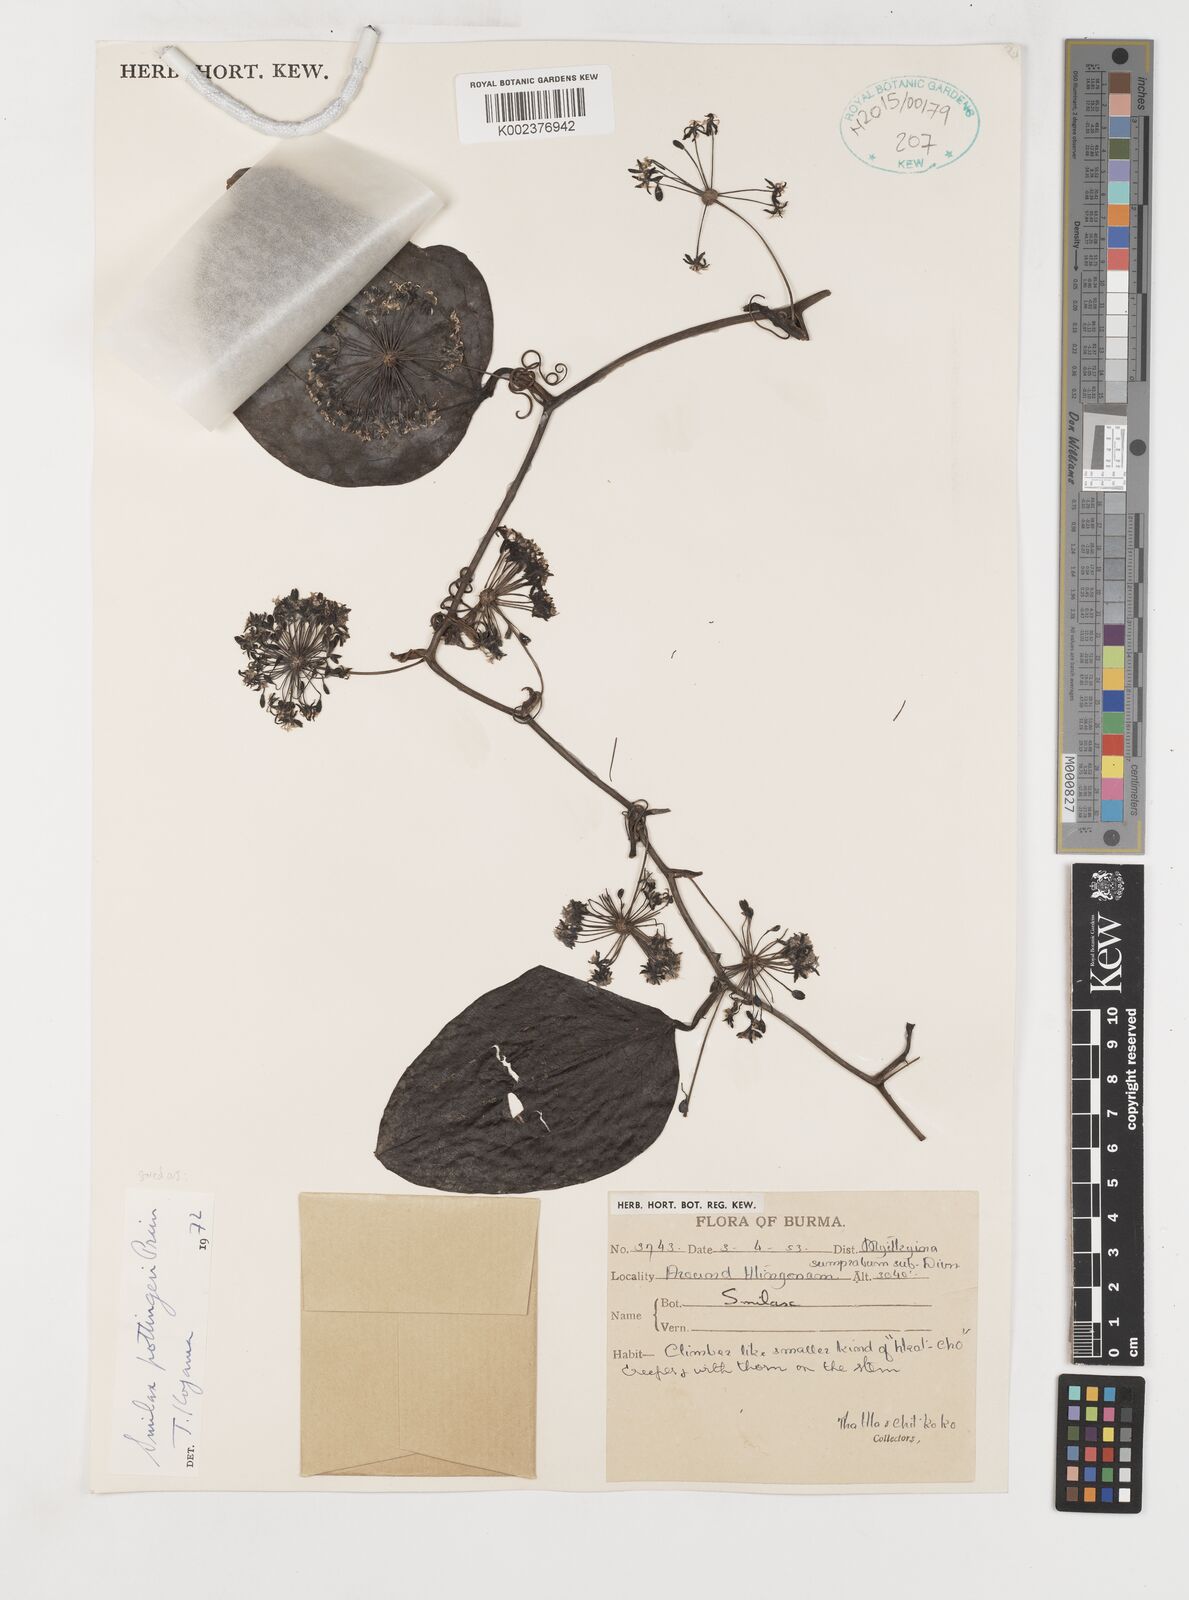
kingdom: Plantae
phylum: Tracheophyta
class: Liliopsida
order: Liliales
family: Smilacaceae
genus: Smilax
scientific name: Smilax pottingeri
